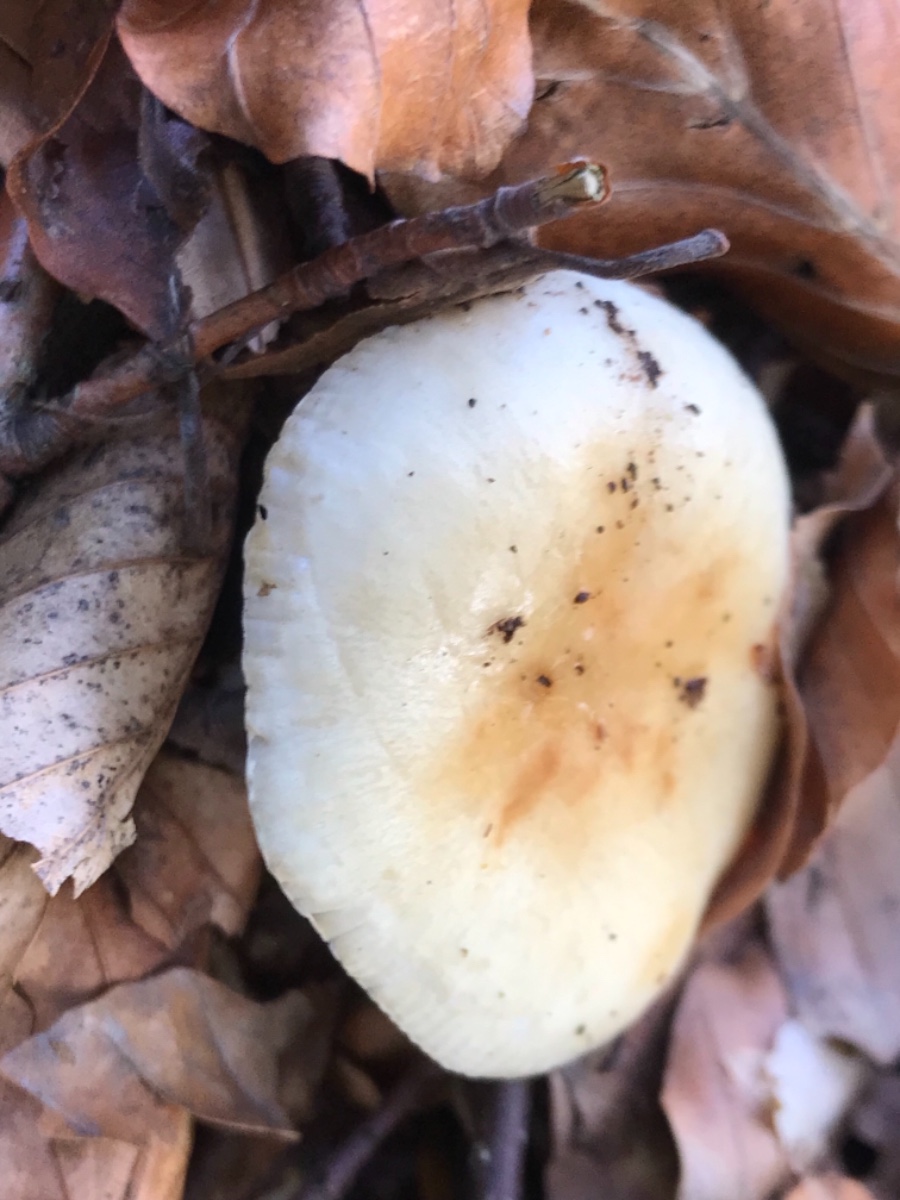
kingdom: Fungi
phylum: Basidiomycota
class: Agaricomycetes
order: Russulales
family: Russulaceae
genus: Russula
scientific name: Russula fellea
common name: galde-skørhat
